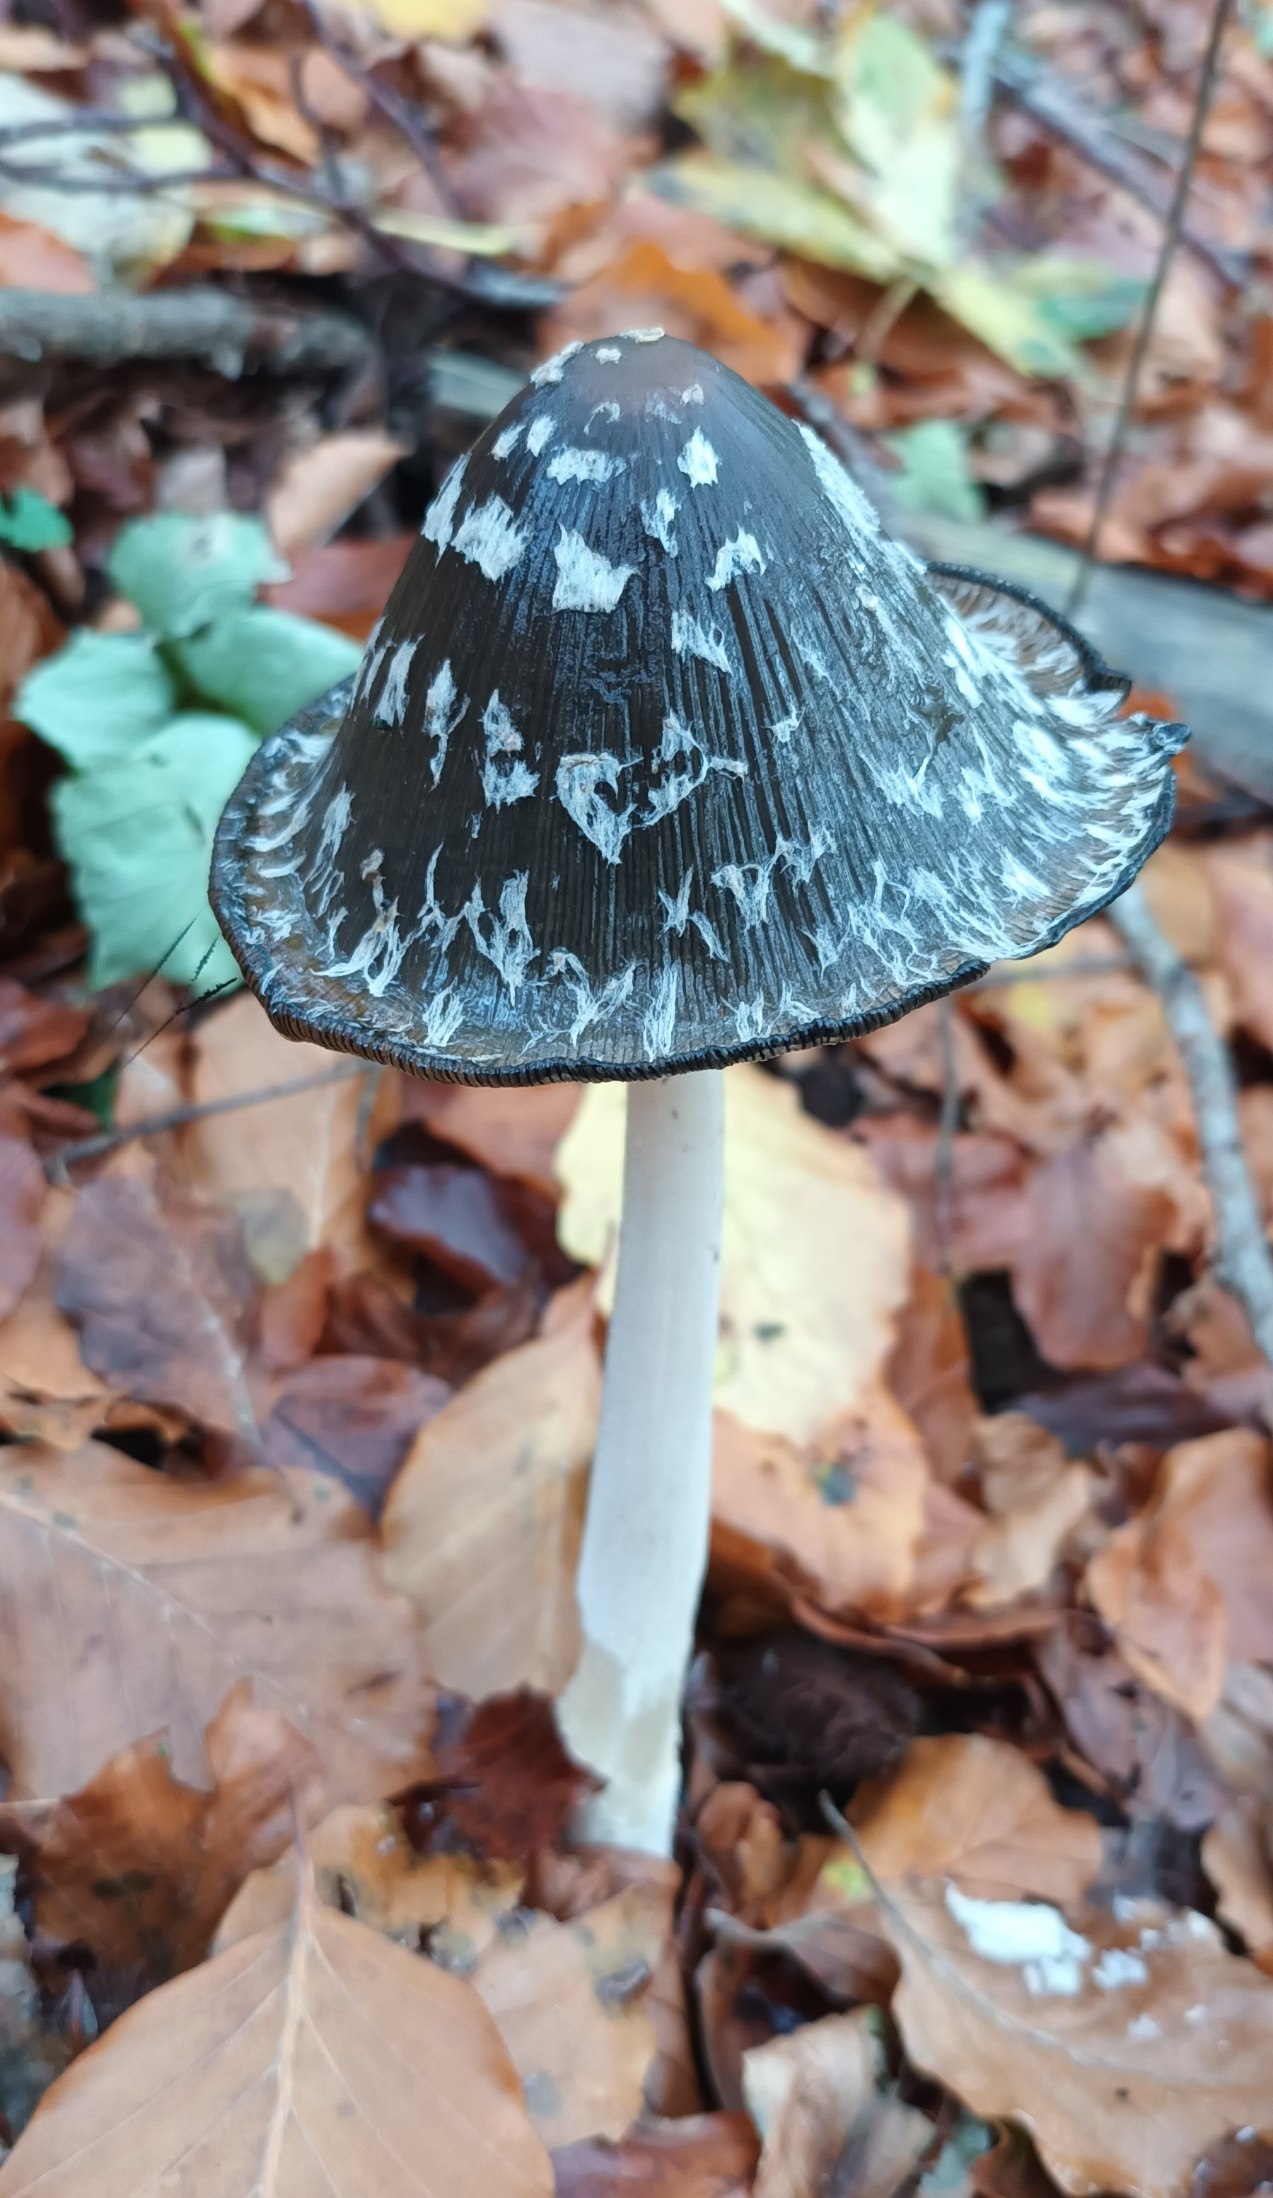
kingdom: Fungi
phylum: Basidiomycota
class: Agaricomycetes
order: Agaricales
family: Psathyrellaceae
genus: Coprinopsis
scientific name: Coprinopsis picacea
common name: Skade-blækhat
